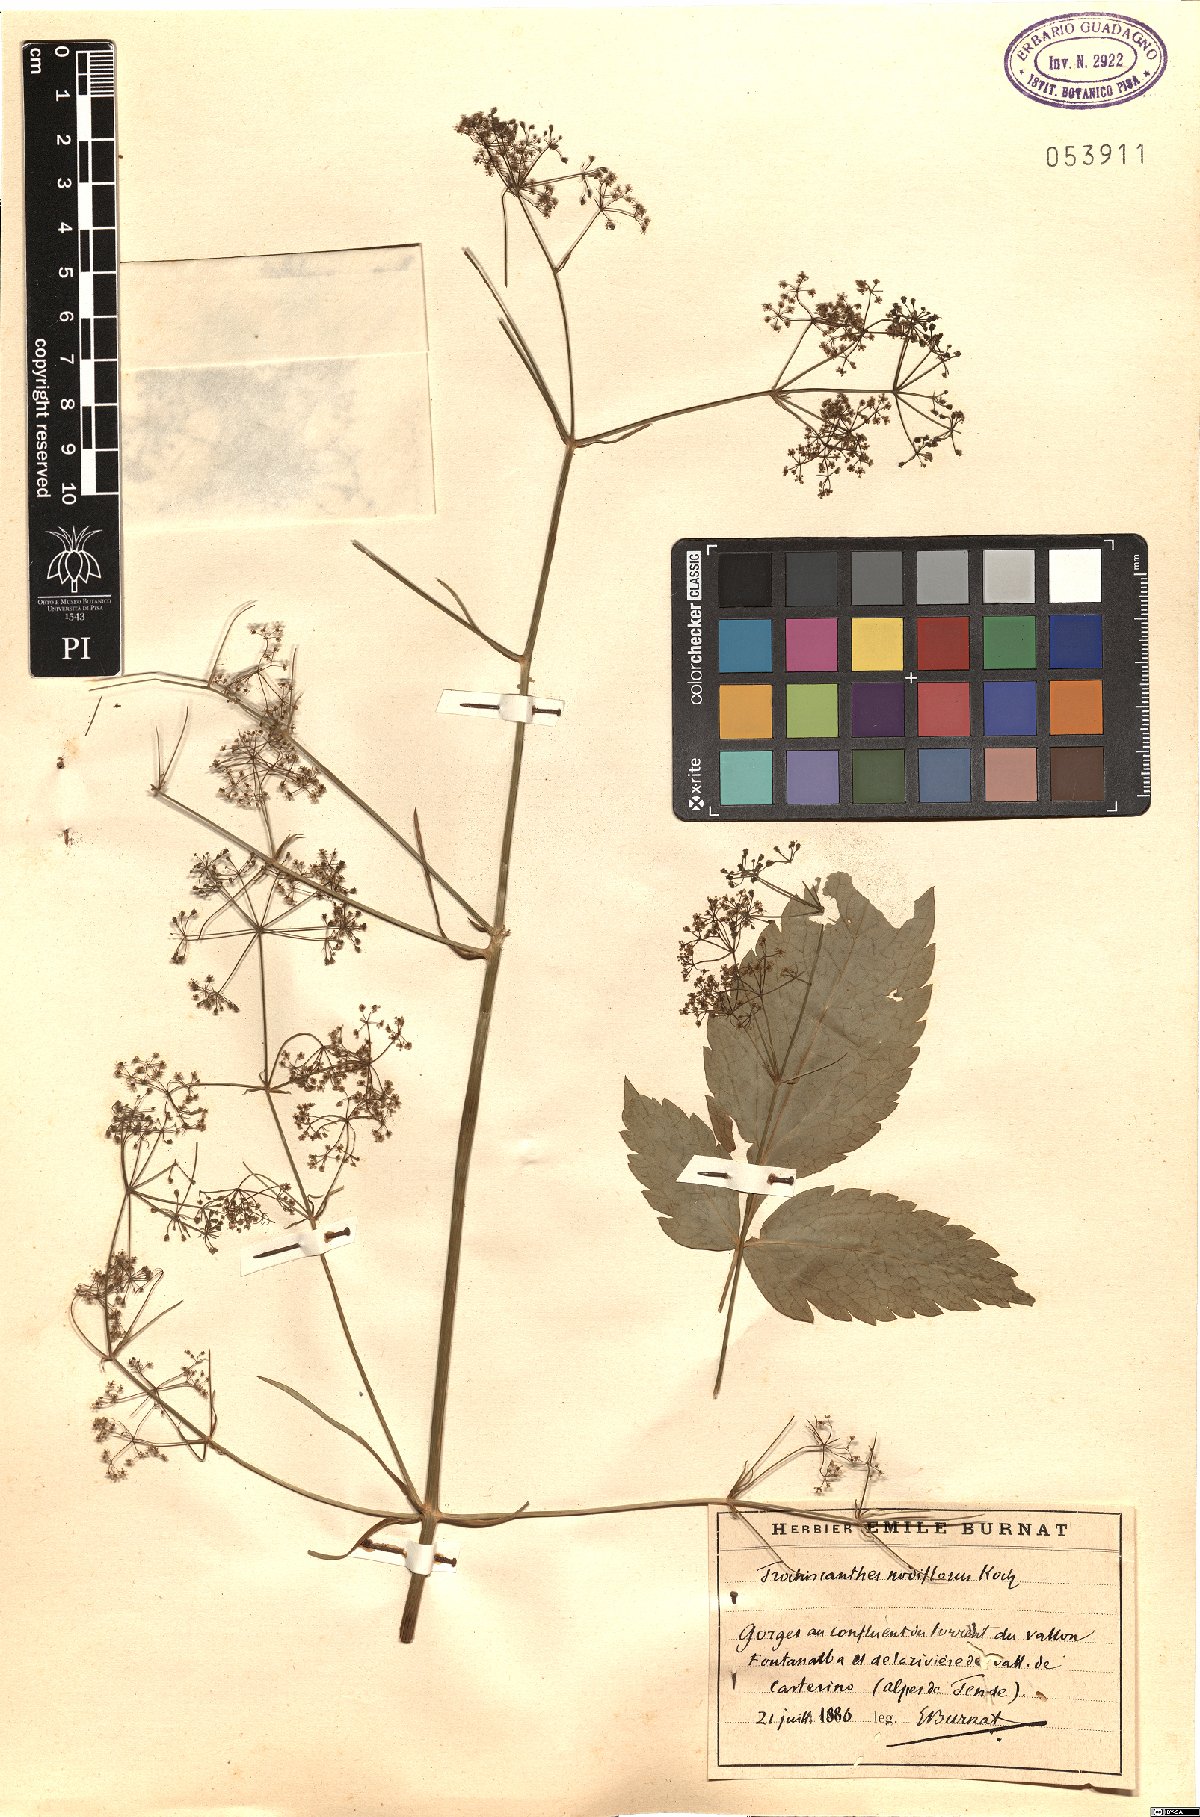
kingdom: Plantae
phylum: Tracheophyta
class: Magnoliopsida
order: Apiales
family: Apiaceae
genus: Trochiscanthes
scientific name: Trochiscanthes nodiflora
